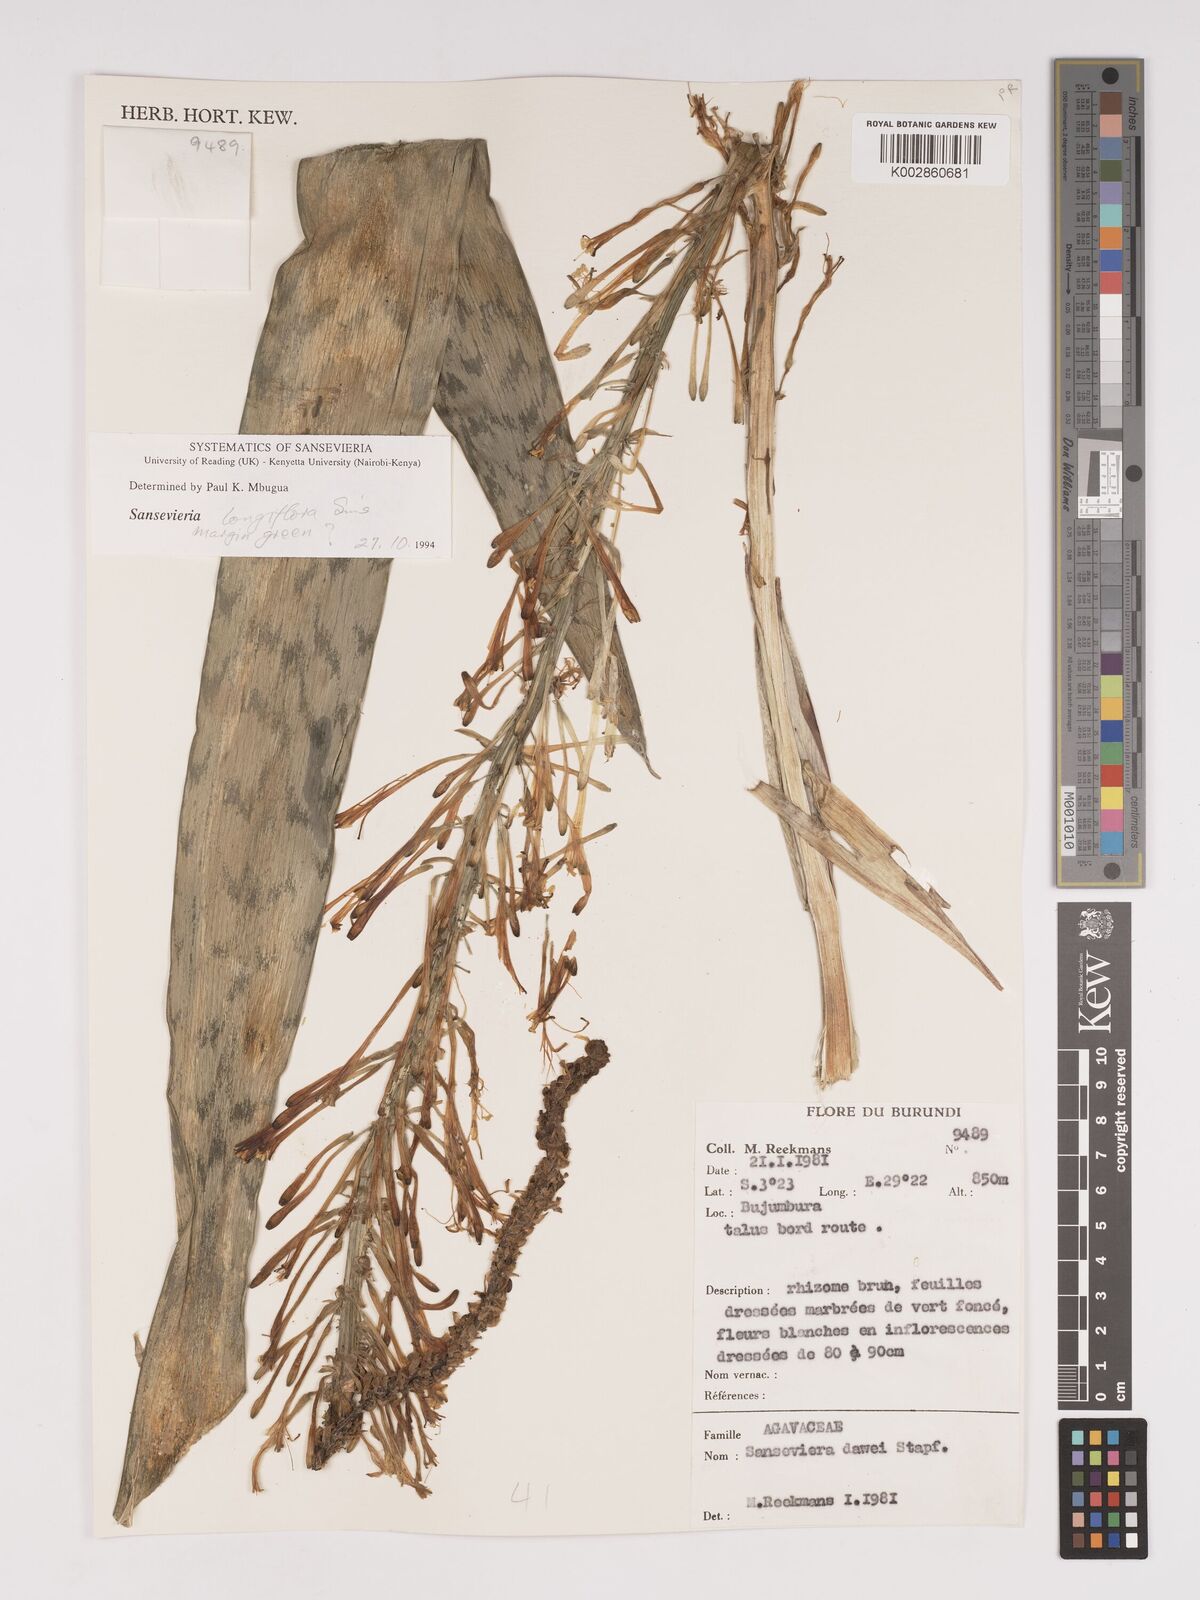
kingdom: Plantae
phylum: Tracheophyta
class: Liliopsida
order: Asparagales
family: Asparagaceae
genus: Dracaena
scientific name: Dracaena dawei
